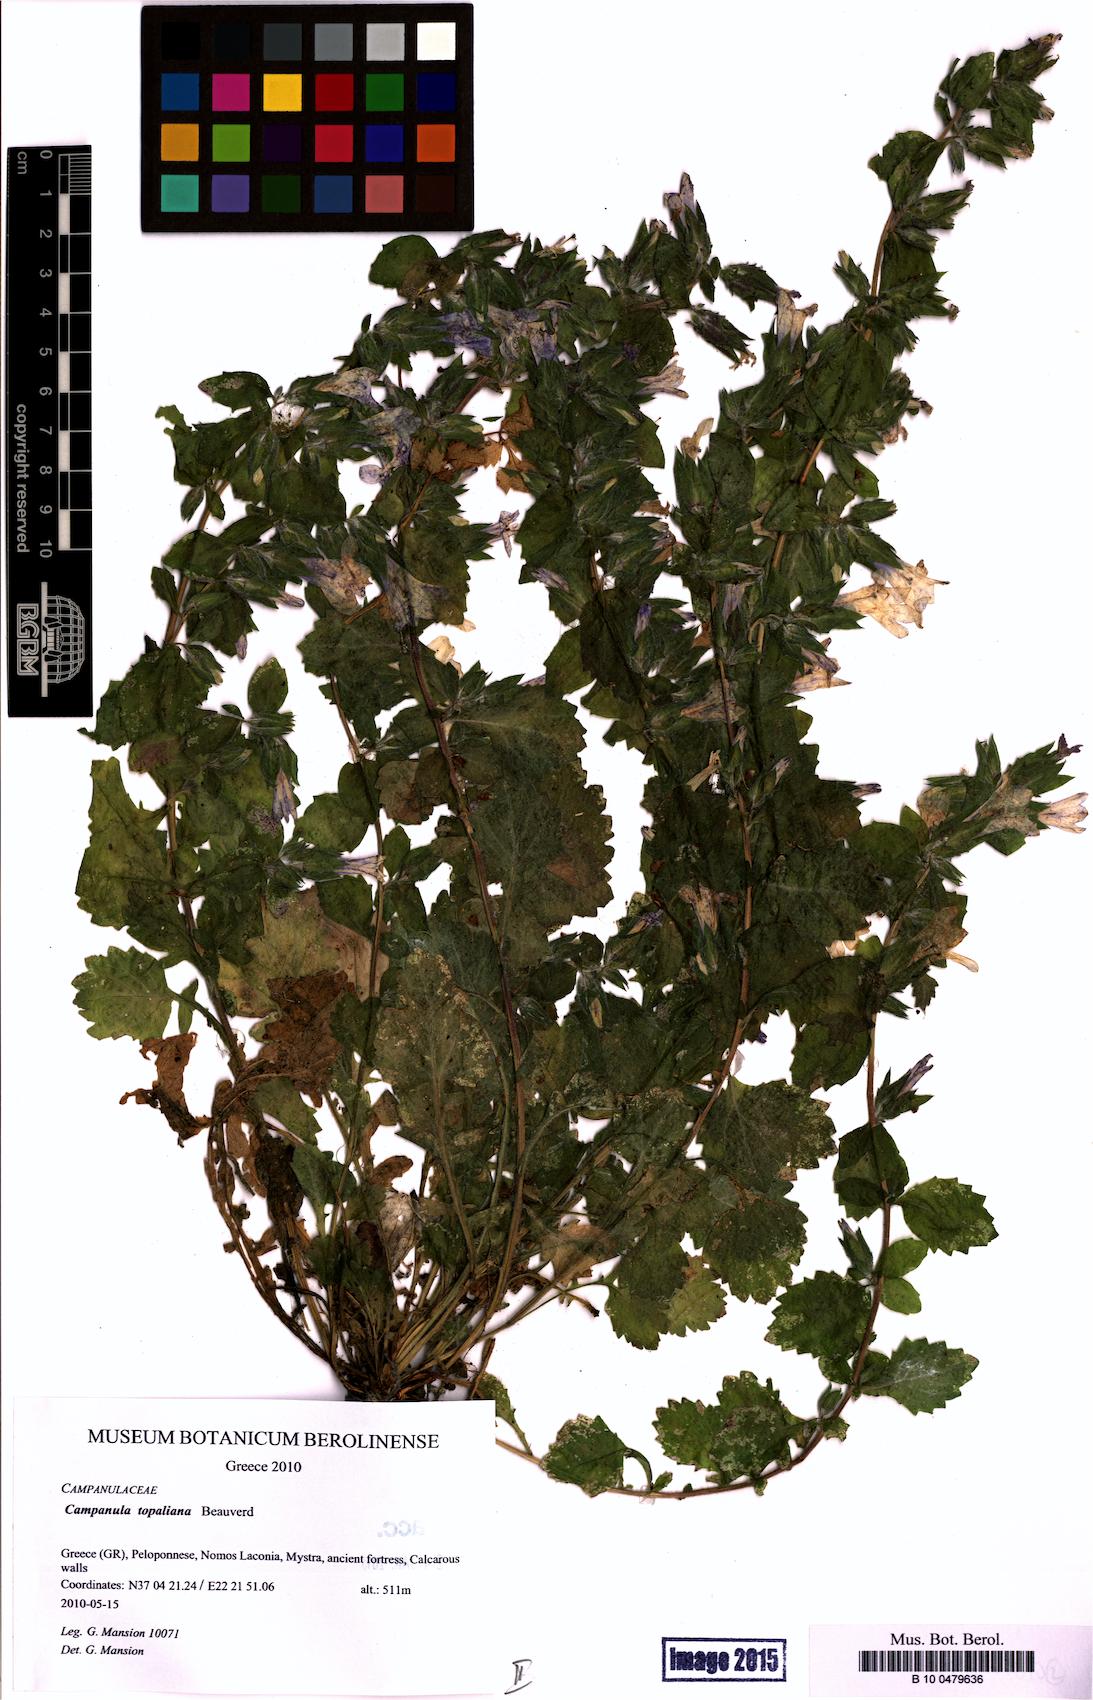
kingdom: Plantae
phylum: Tracheophyta
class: Magnoliopsida
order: Asterales
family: Campanulaceae
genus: Campanula
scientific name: Campanula topaliana
